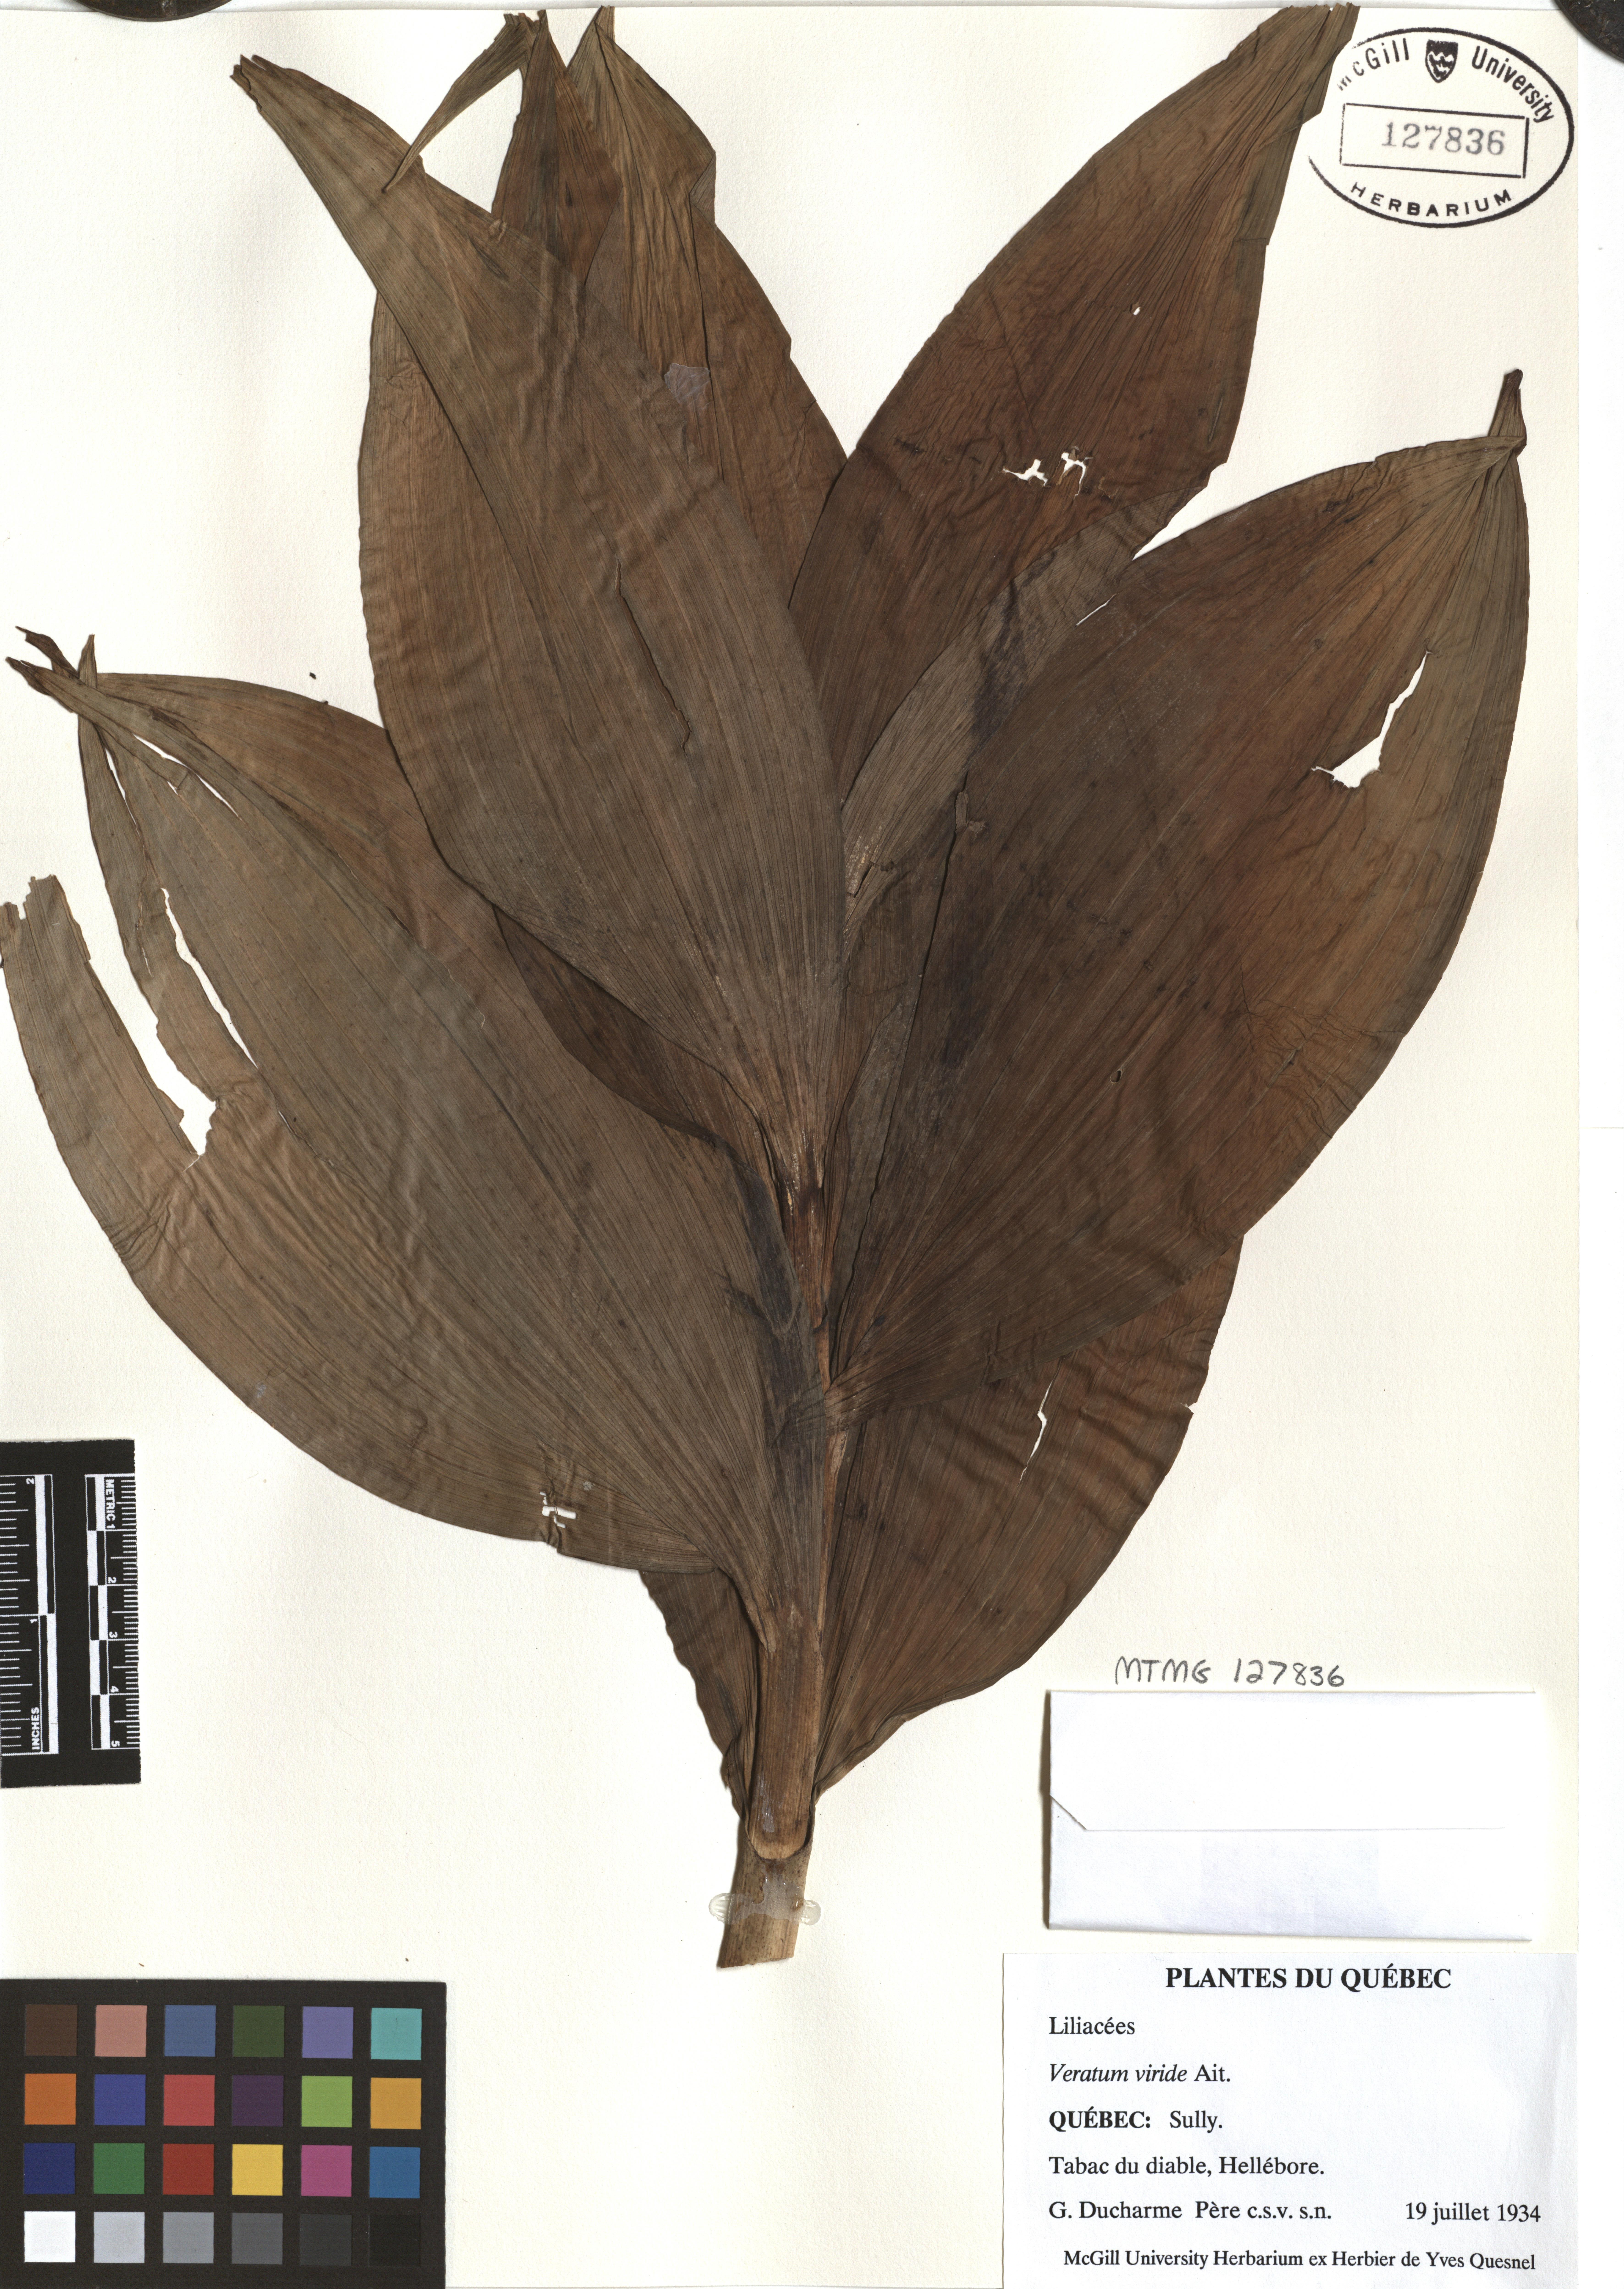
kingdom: Plantae
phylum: Tracheophyta
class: Liliopsida
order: Liliales
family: Melanthiaceae
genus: Veratrum
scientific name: Veratrum viride
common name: American false hellebore
